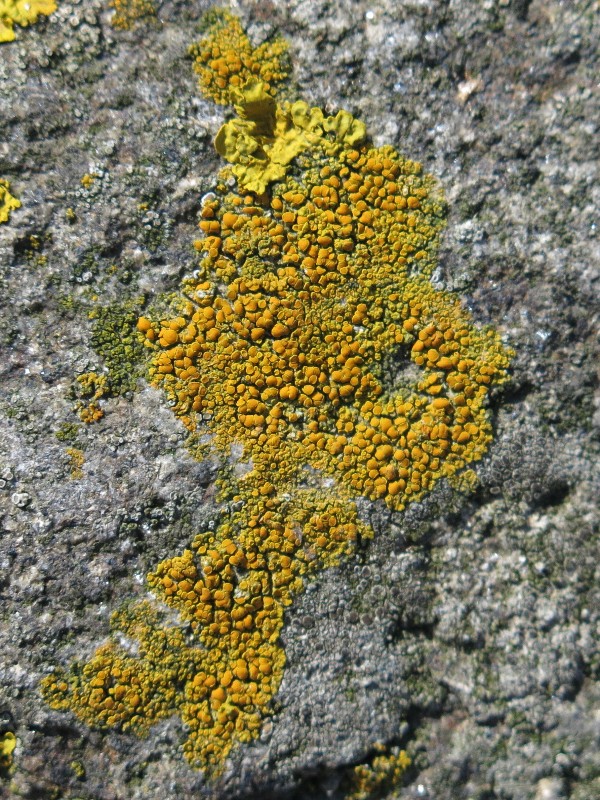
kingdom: Fungi
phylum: Ascomycota
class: Lecanoromycetes
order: Teloschistales
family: Teloschistaceae
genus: Flavoplaca
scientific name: Flavoplaca marina
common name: strand-orangelav
